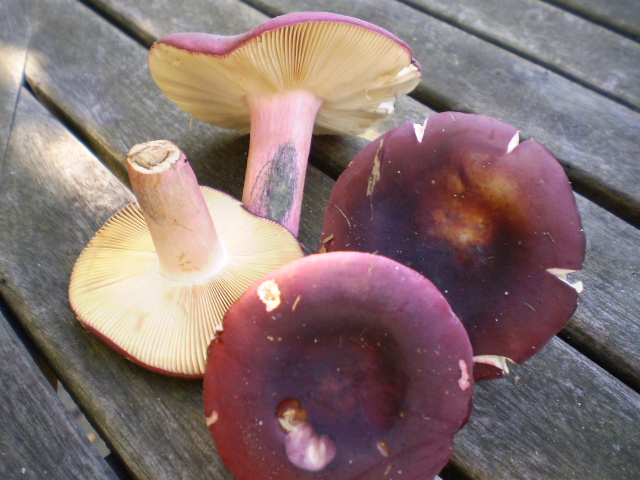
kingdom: Fungi
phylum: Basidiomycota
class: Agaricomycetes
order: Russulales
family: Russulaceae
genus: Russula
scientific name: Russula xerampelina
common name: hummer-skørhat
